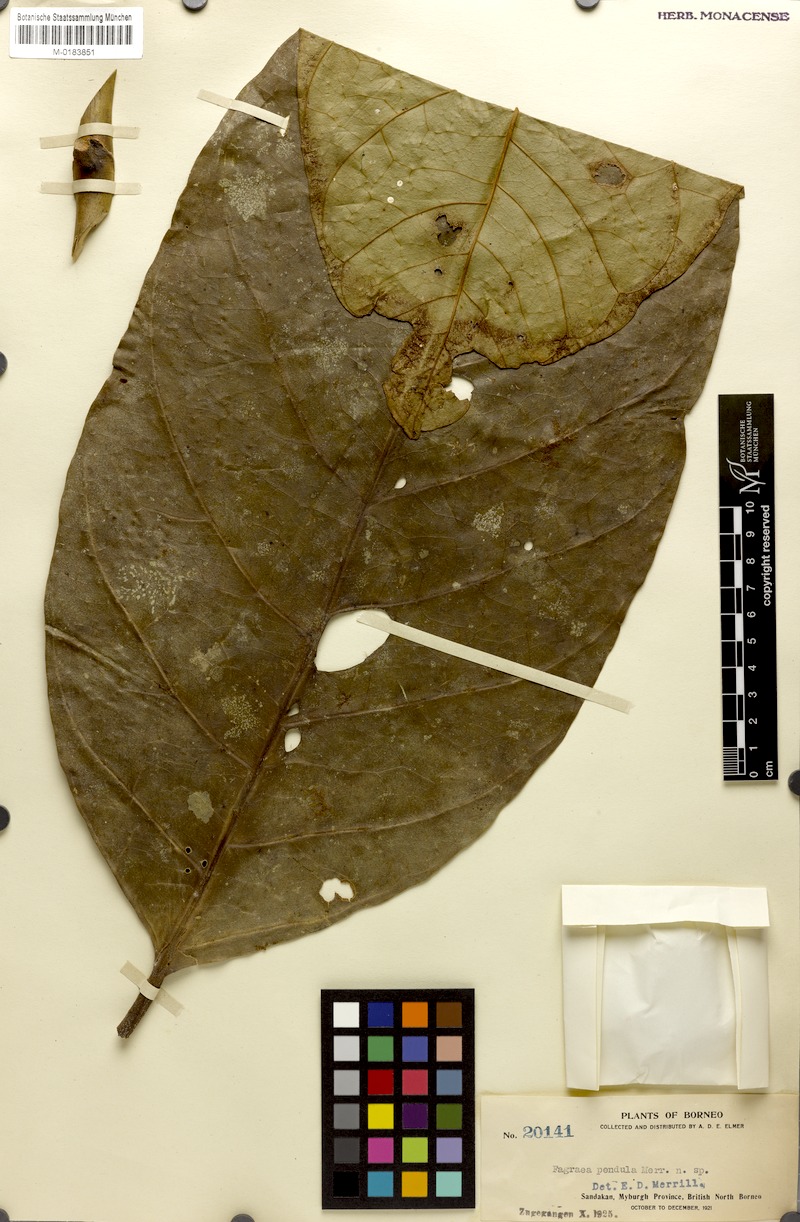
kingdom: Plantae
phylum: Tracheophyta
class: Magnoliopsida
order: Gentianales
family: Gentianaceae
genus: Utania
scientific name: Utania racemosa
